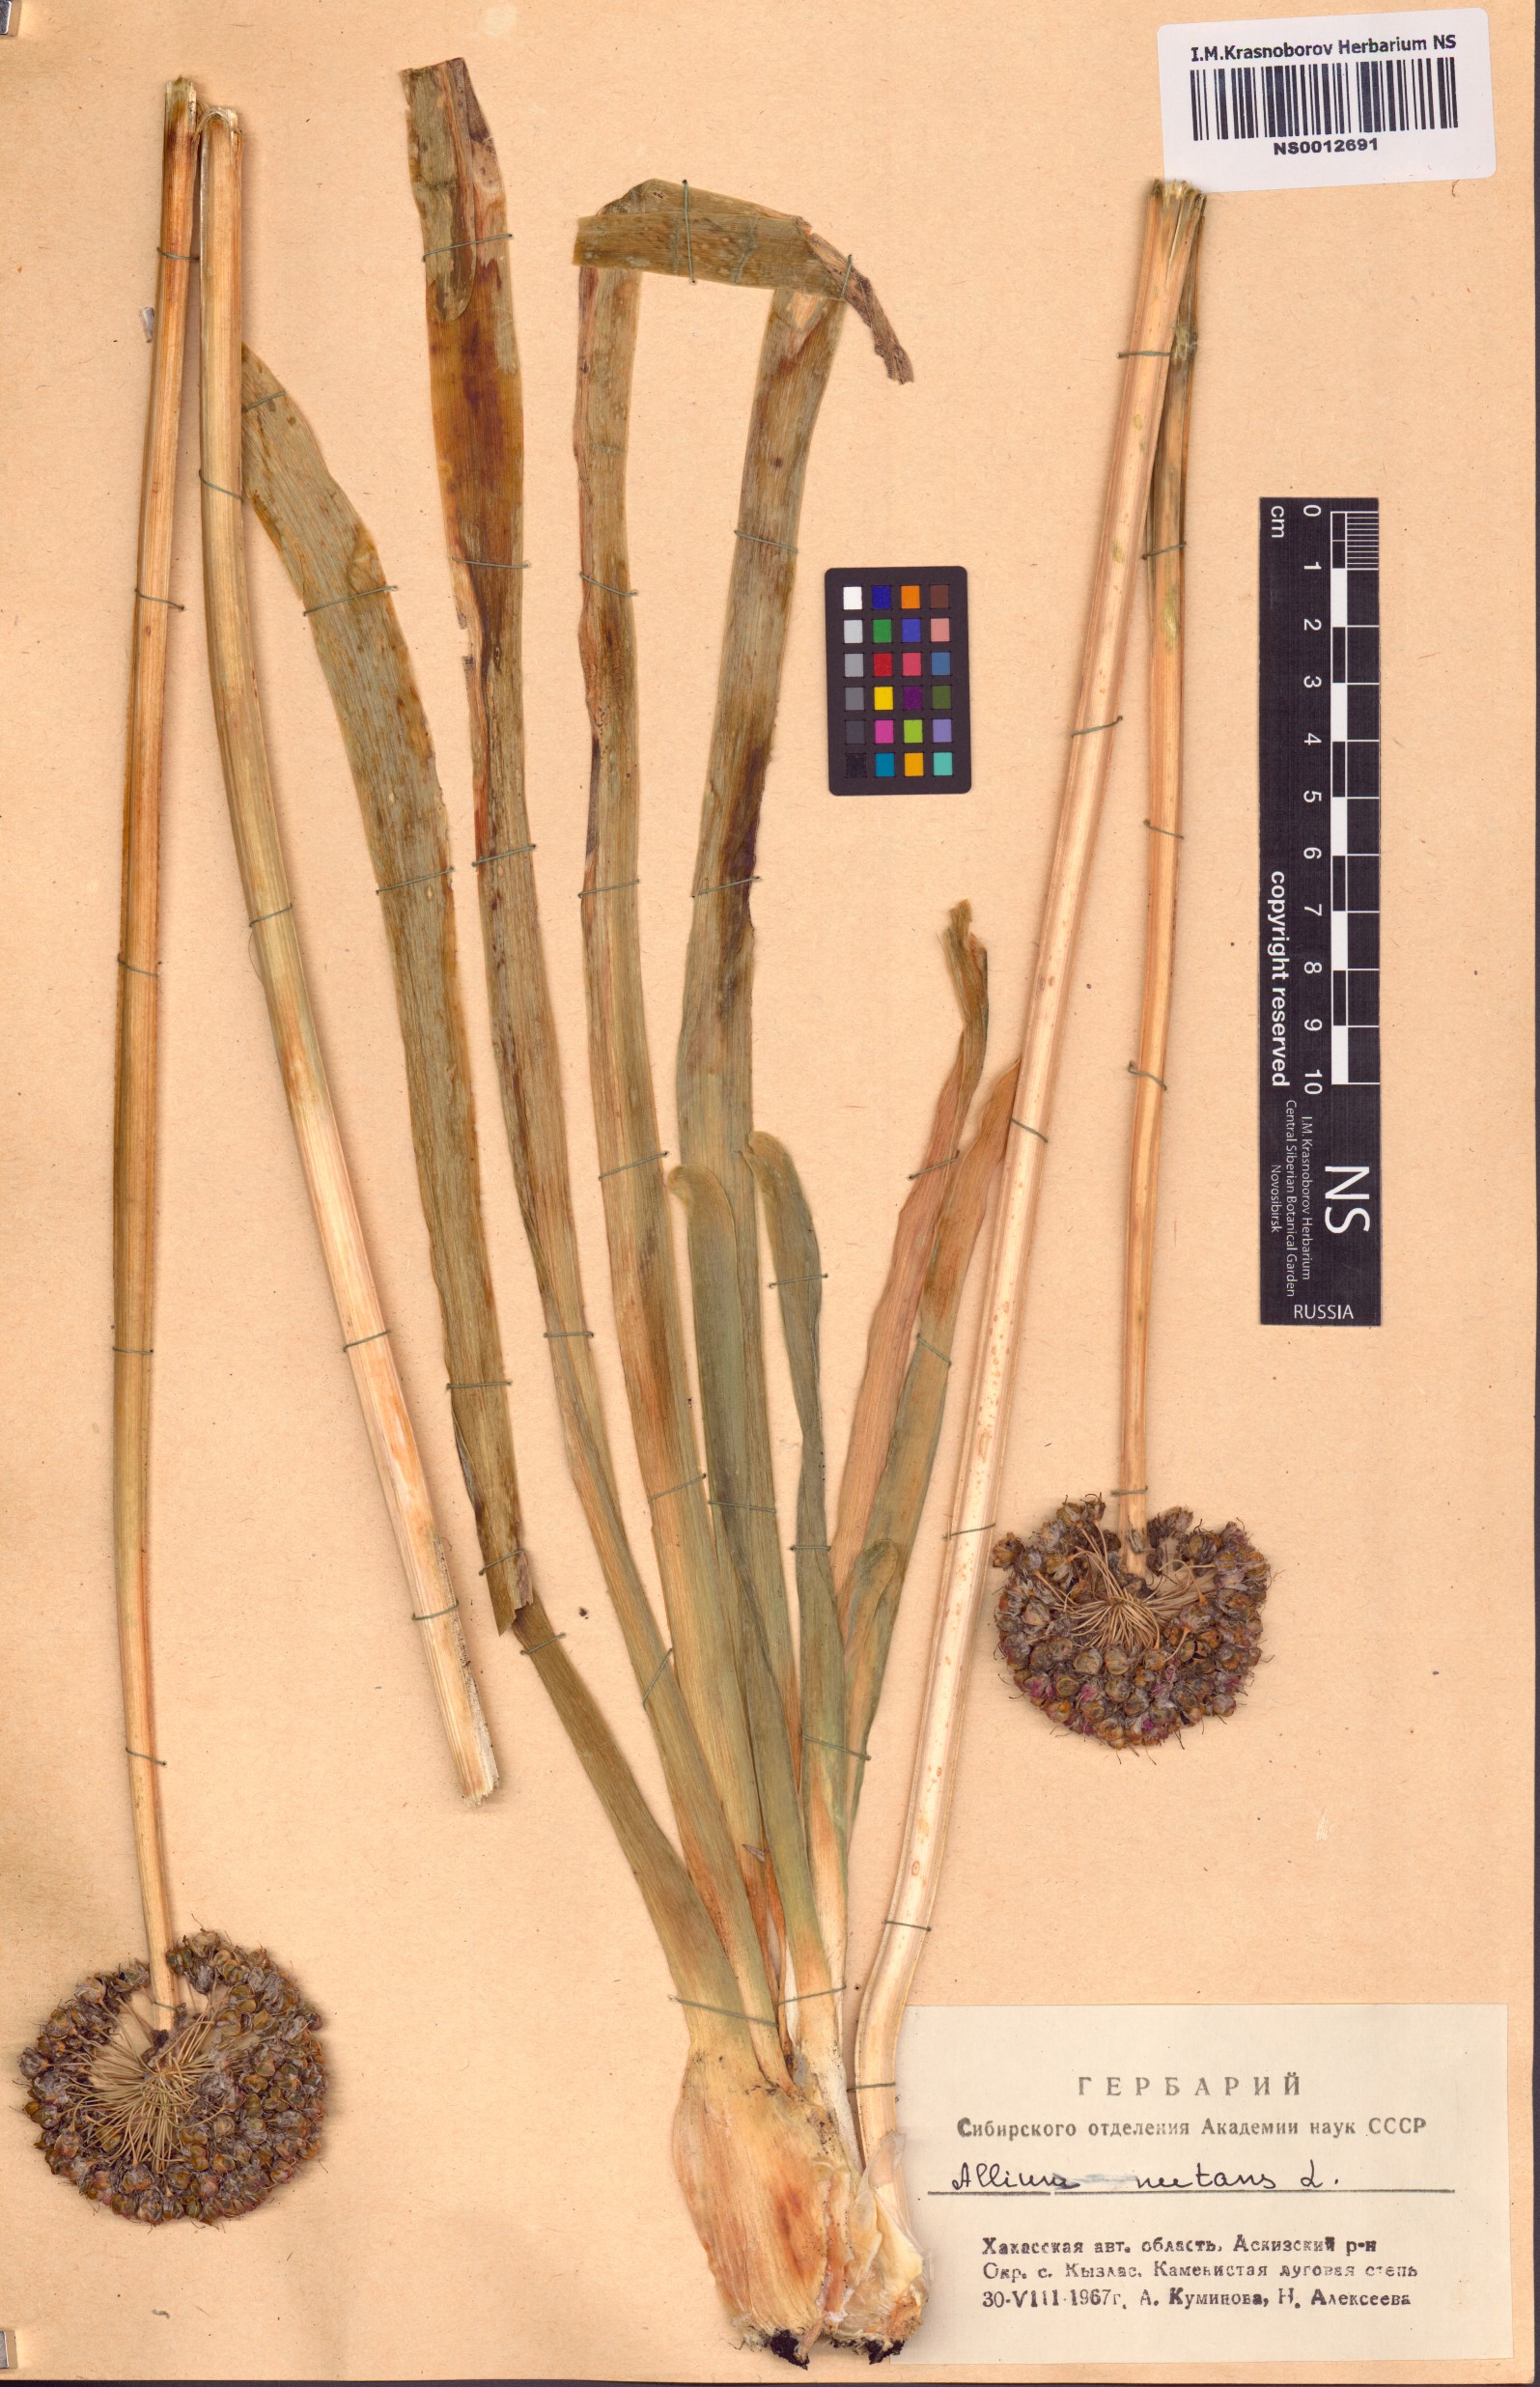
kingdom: Plantae
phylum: Tracheophyta
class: Liliopsida
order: Asparagales
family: Amaryllidaceae
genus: Allium
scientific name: Allium nutans
